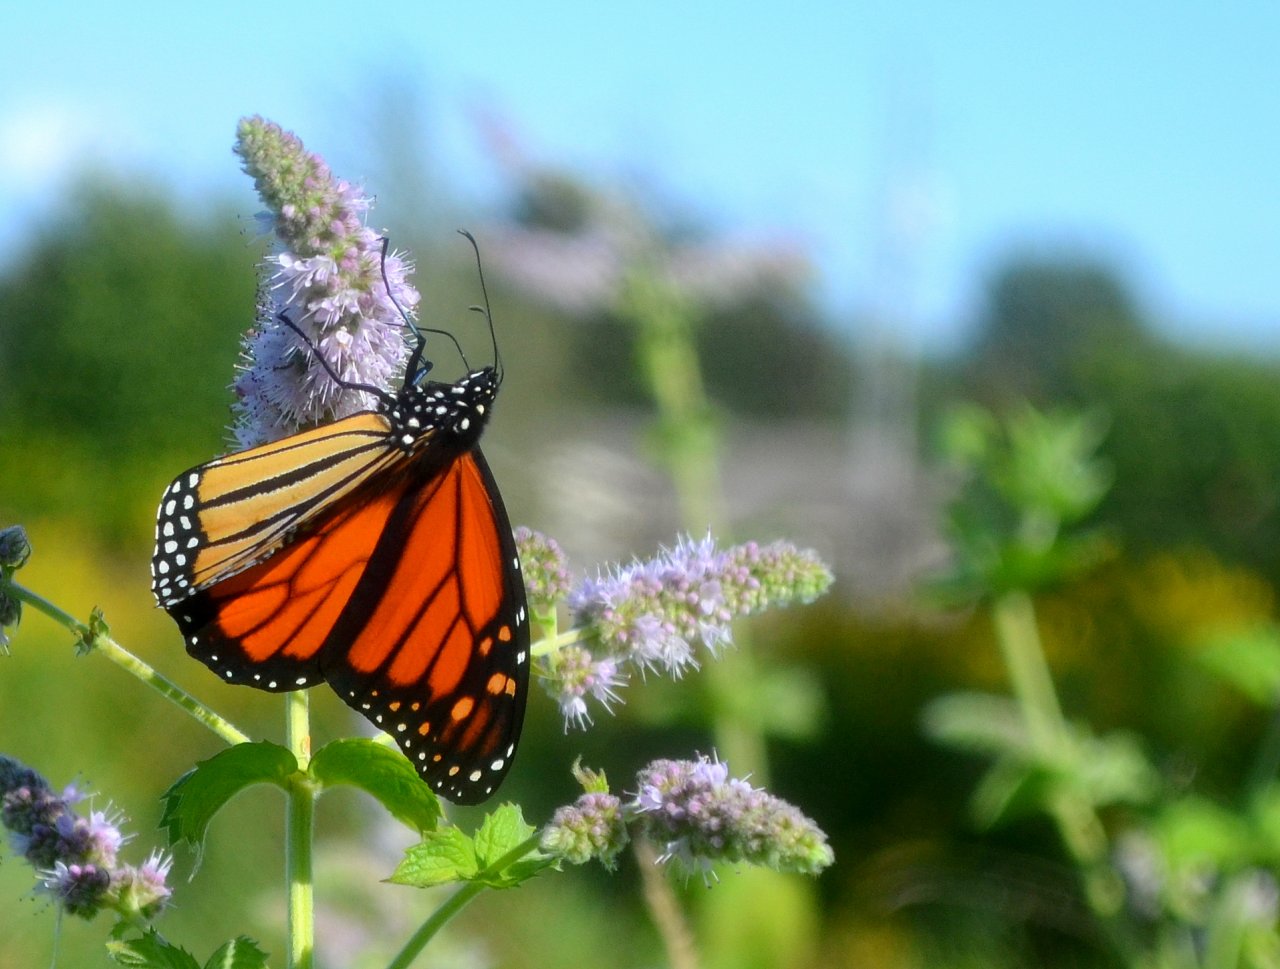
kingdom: Animalia
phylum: Arthropoda
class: Insecta
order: Lepidoptera
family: Nymphalidae
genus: Danaus
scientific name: Danaus plexippus
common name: Monarch
